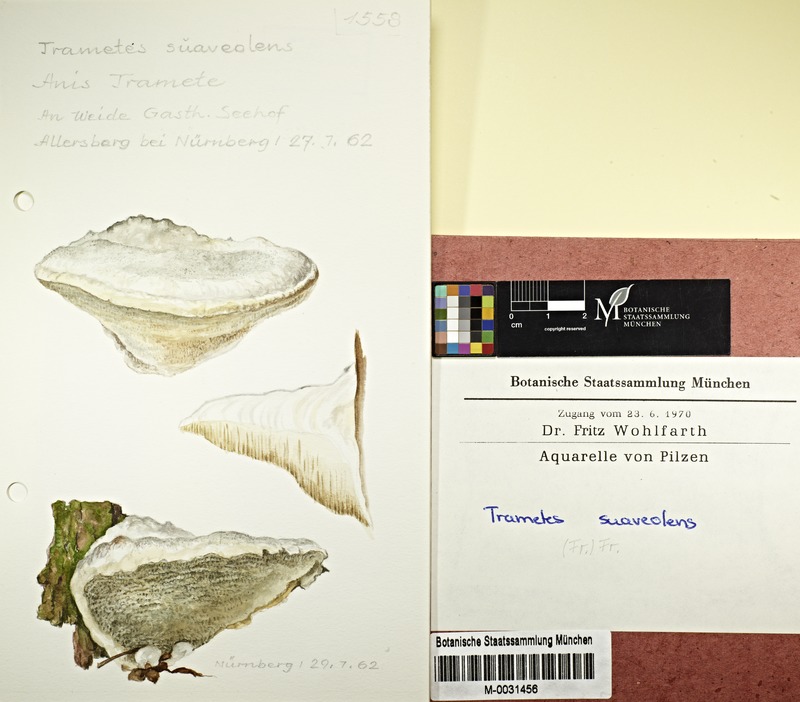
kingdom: Fungi
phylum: Basidiomycota
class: Agaricomycetes
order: Polyporales
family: Polyporaceae
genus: Trametes
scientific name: Trametes suaveolens
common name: Fragrant bracket
